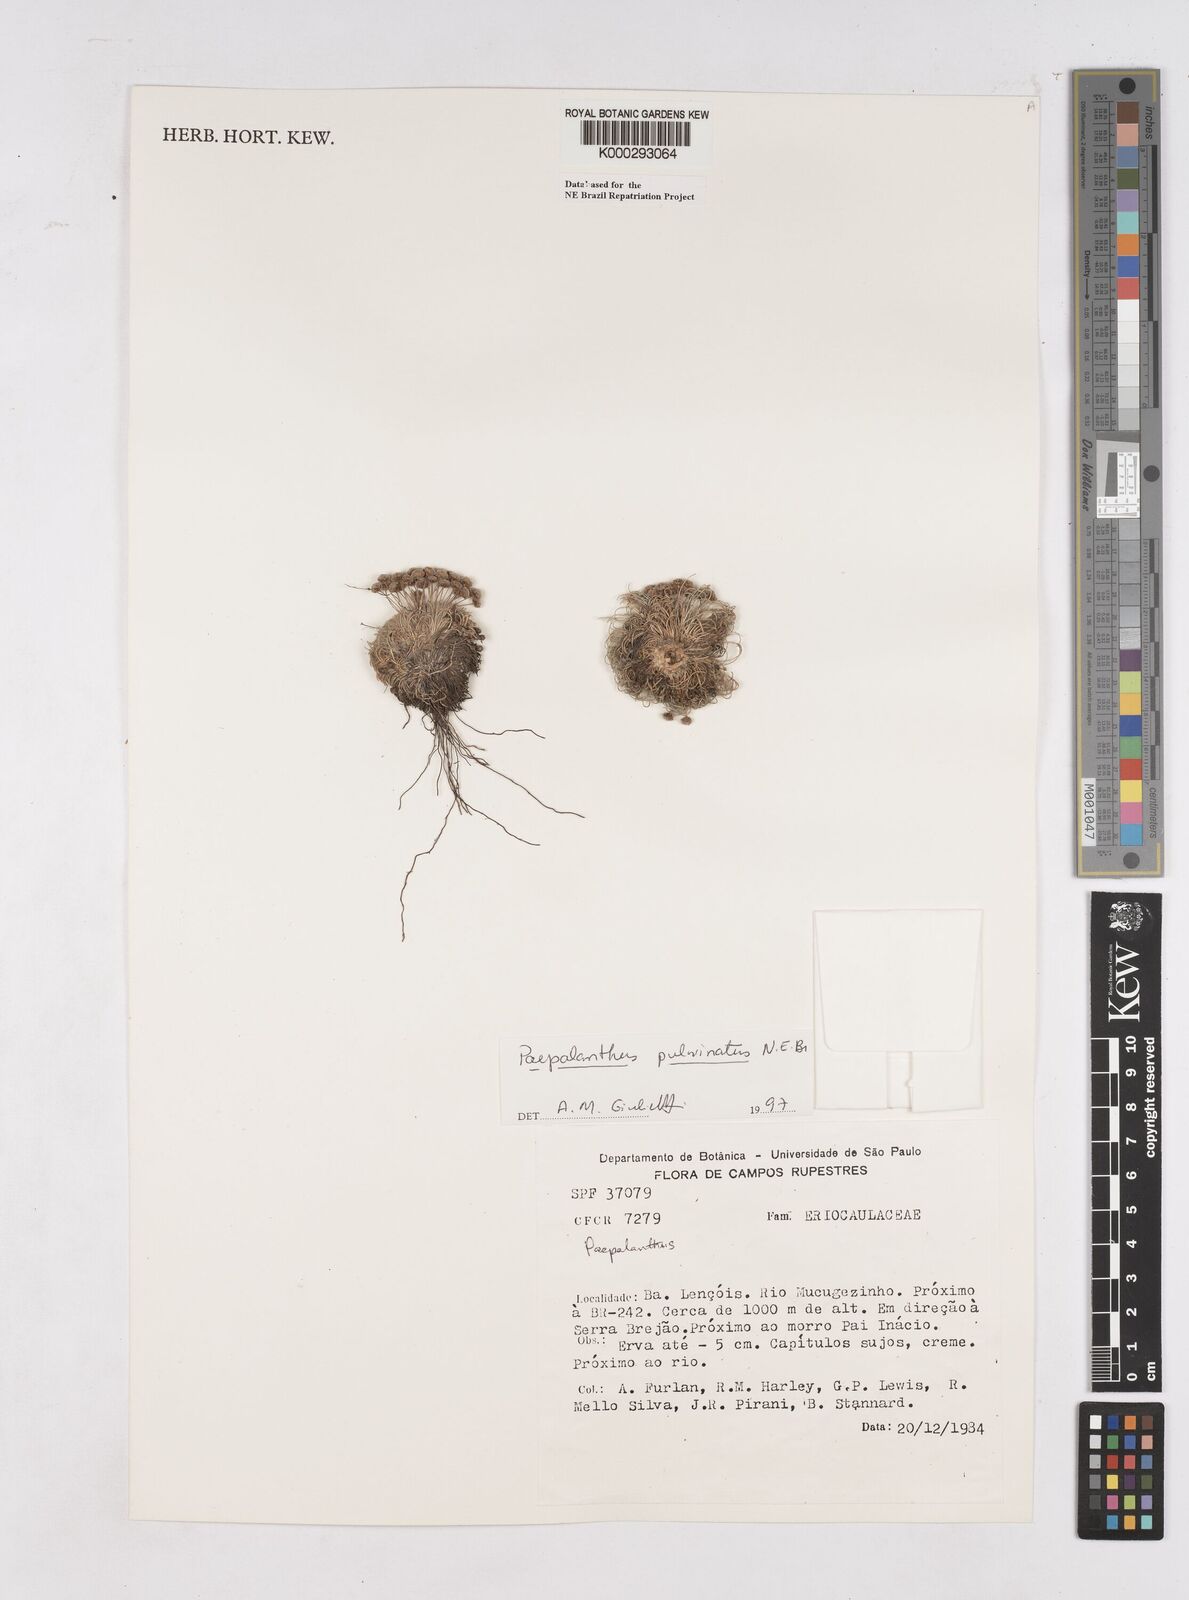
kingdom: Plantae
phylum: Tracheophyta
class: Liliopsida
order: Poales
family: Eriocaulaceae
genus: Paepalanthus
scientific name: Paepalanthus pulvinatus
